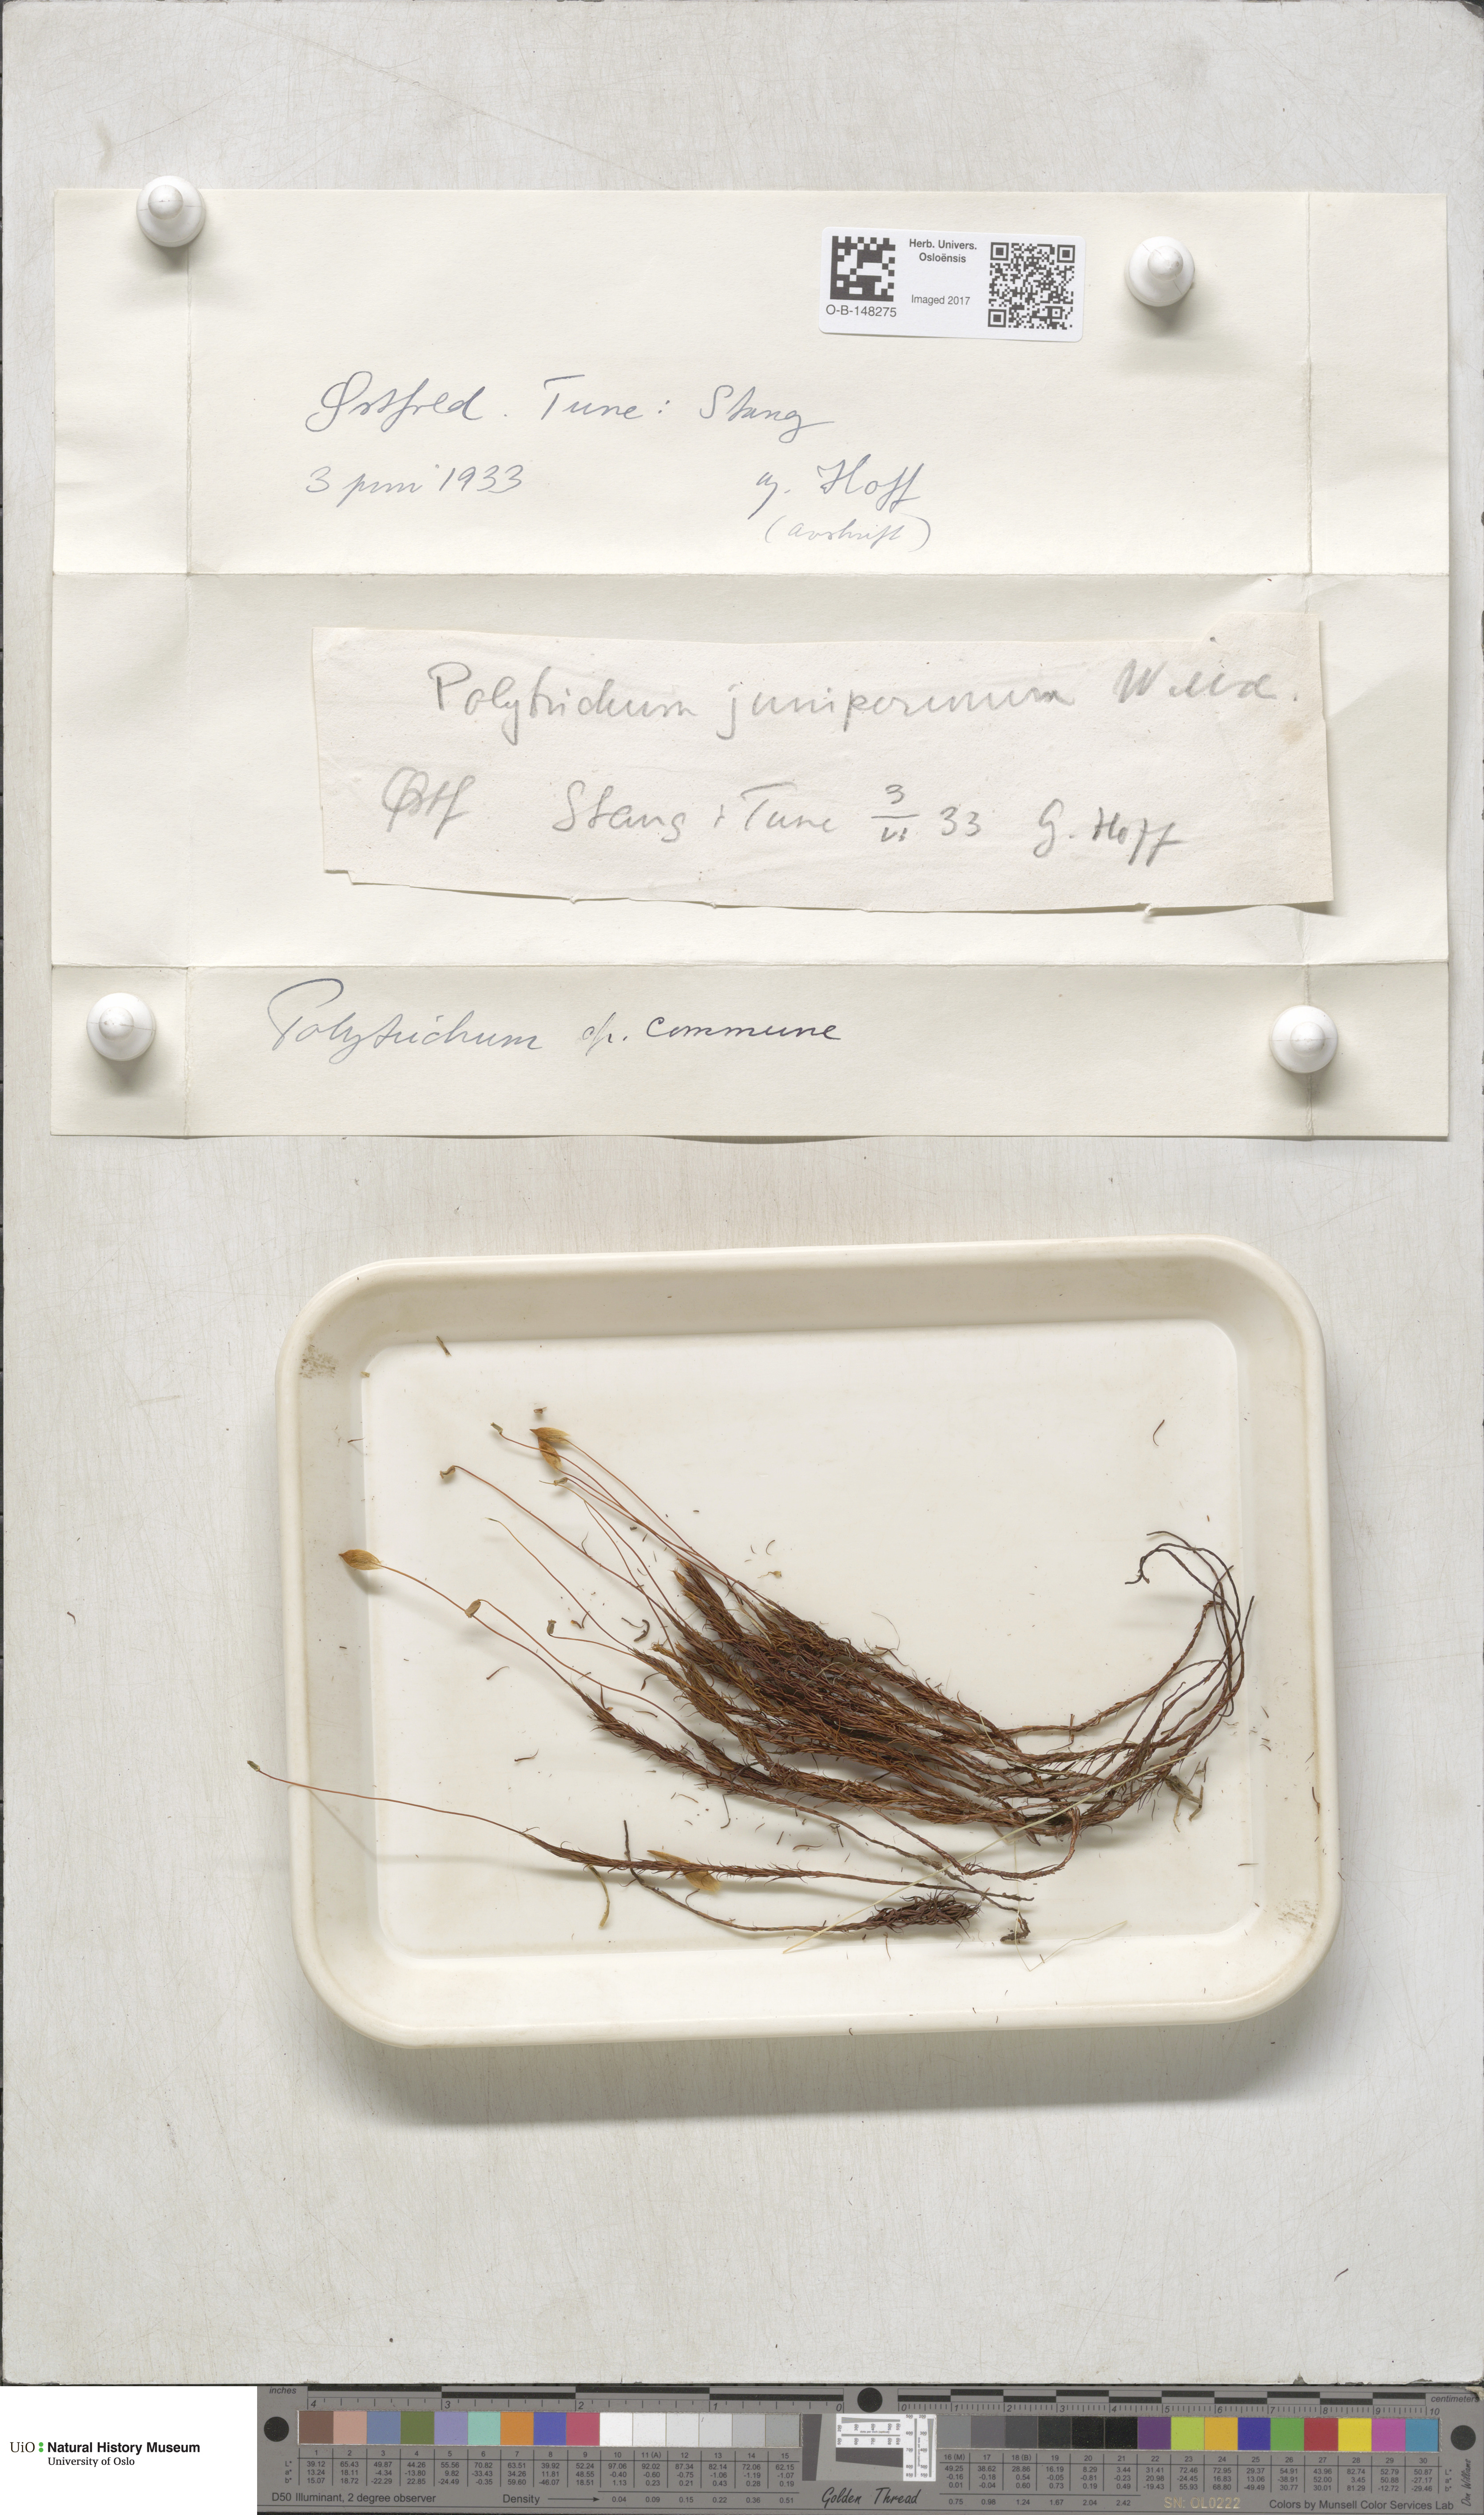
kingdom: Plantae
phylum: Bryophyta
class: Polytrichopsida
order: Polytrichales
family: Polytrichaceae
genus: Polytrichum
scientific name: Polytrichum commune
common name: Common haircap
